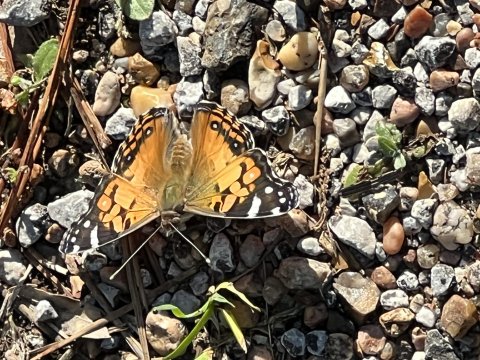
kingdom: Animalia
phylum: Arthropoda
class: Insecta
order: Lepidoptera
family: Nymphalidae
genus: Vanessa
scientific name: Vanessa virginiensis
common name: American Lady
